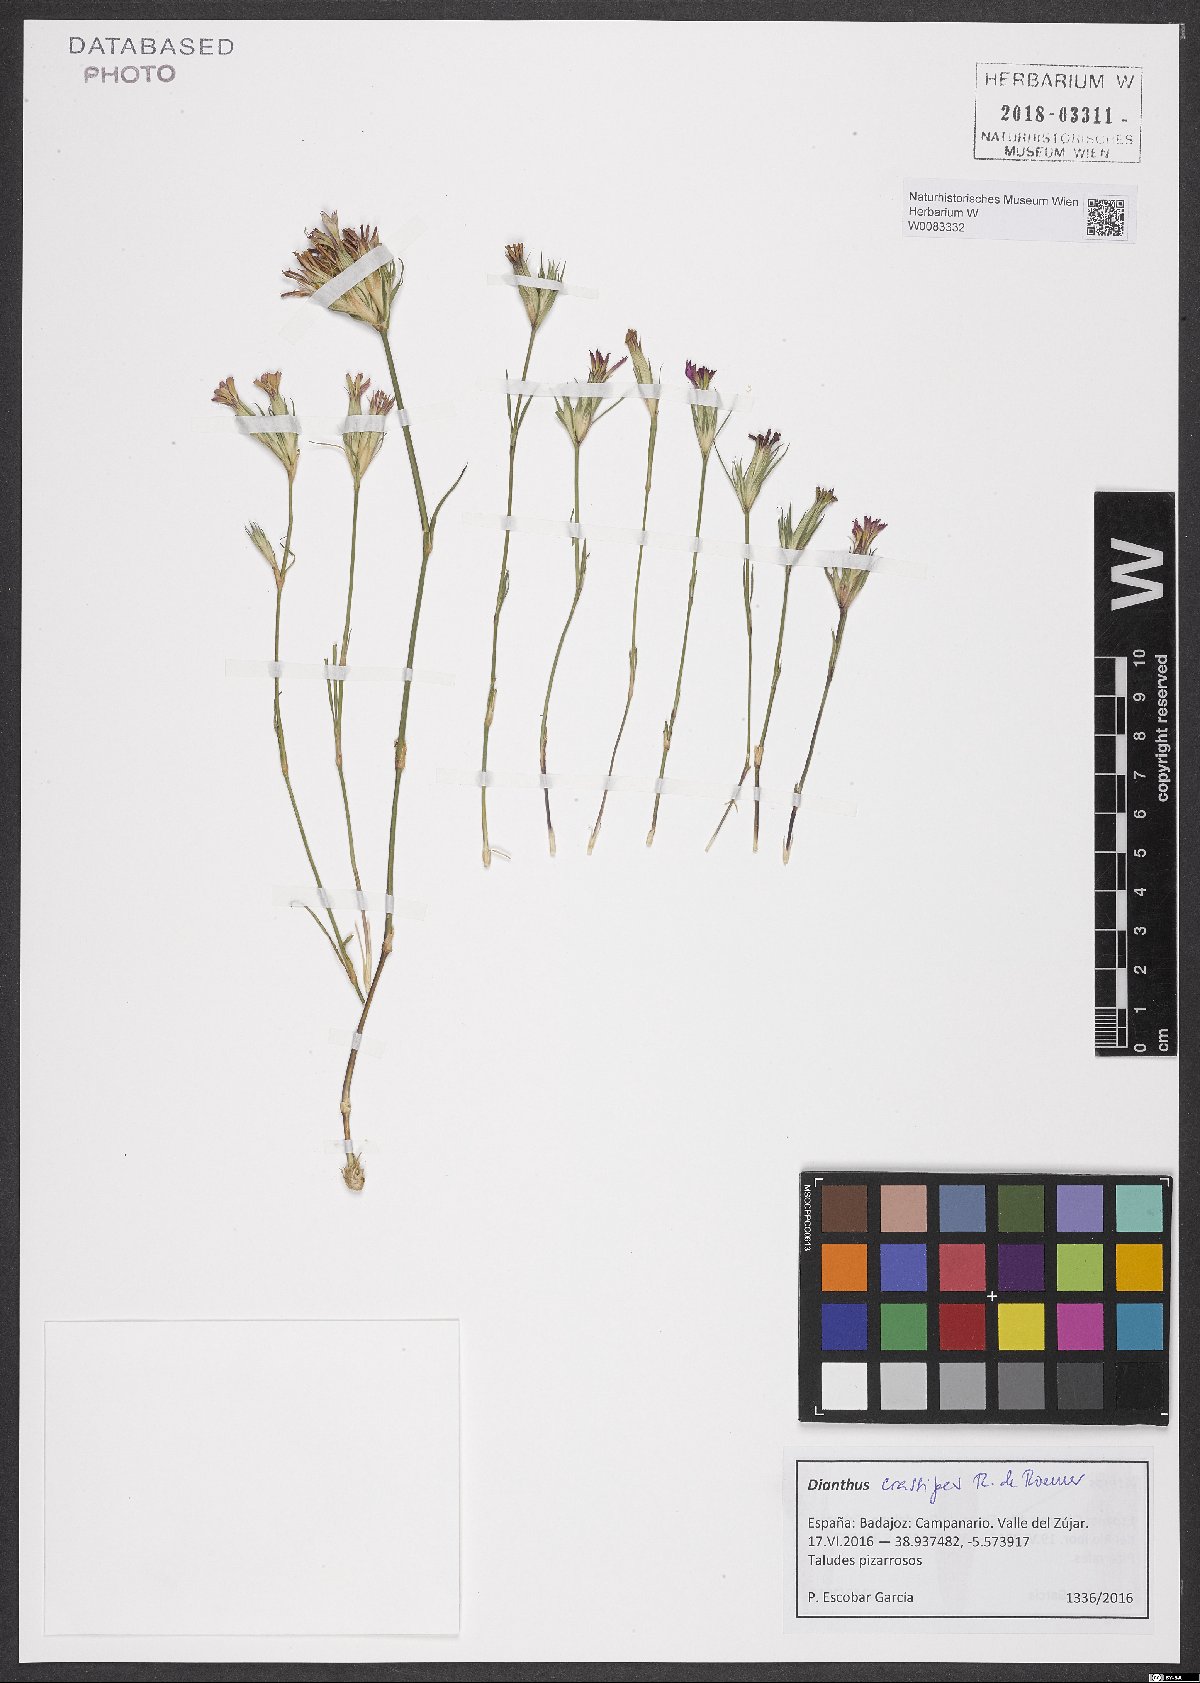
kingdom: Plantae
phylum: Tracheophyta
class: Magnoliopsida
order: Caryophyllales
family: Caryophyllaceae
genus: Dianthus
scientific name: Dianthus crassipes
